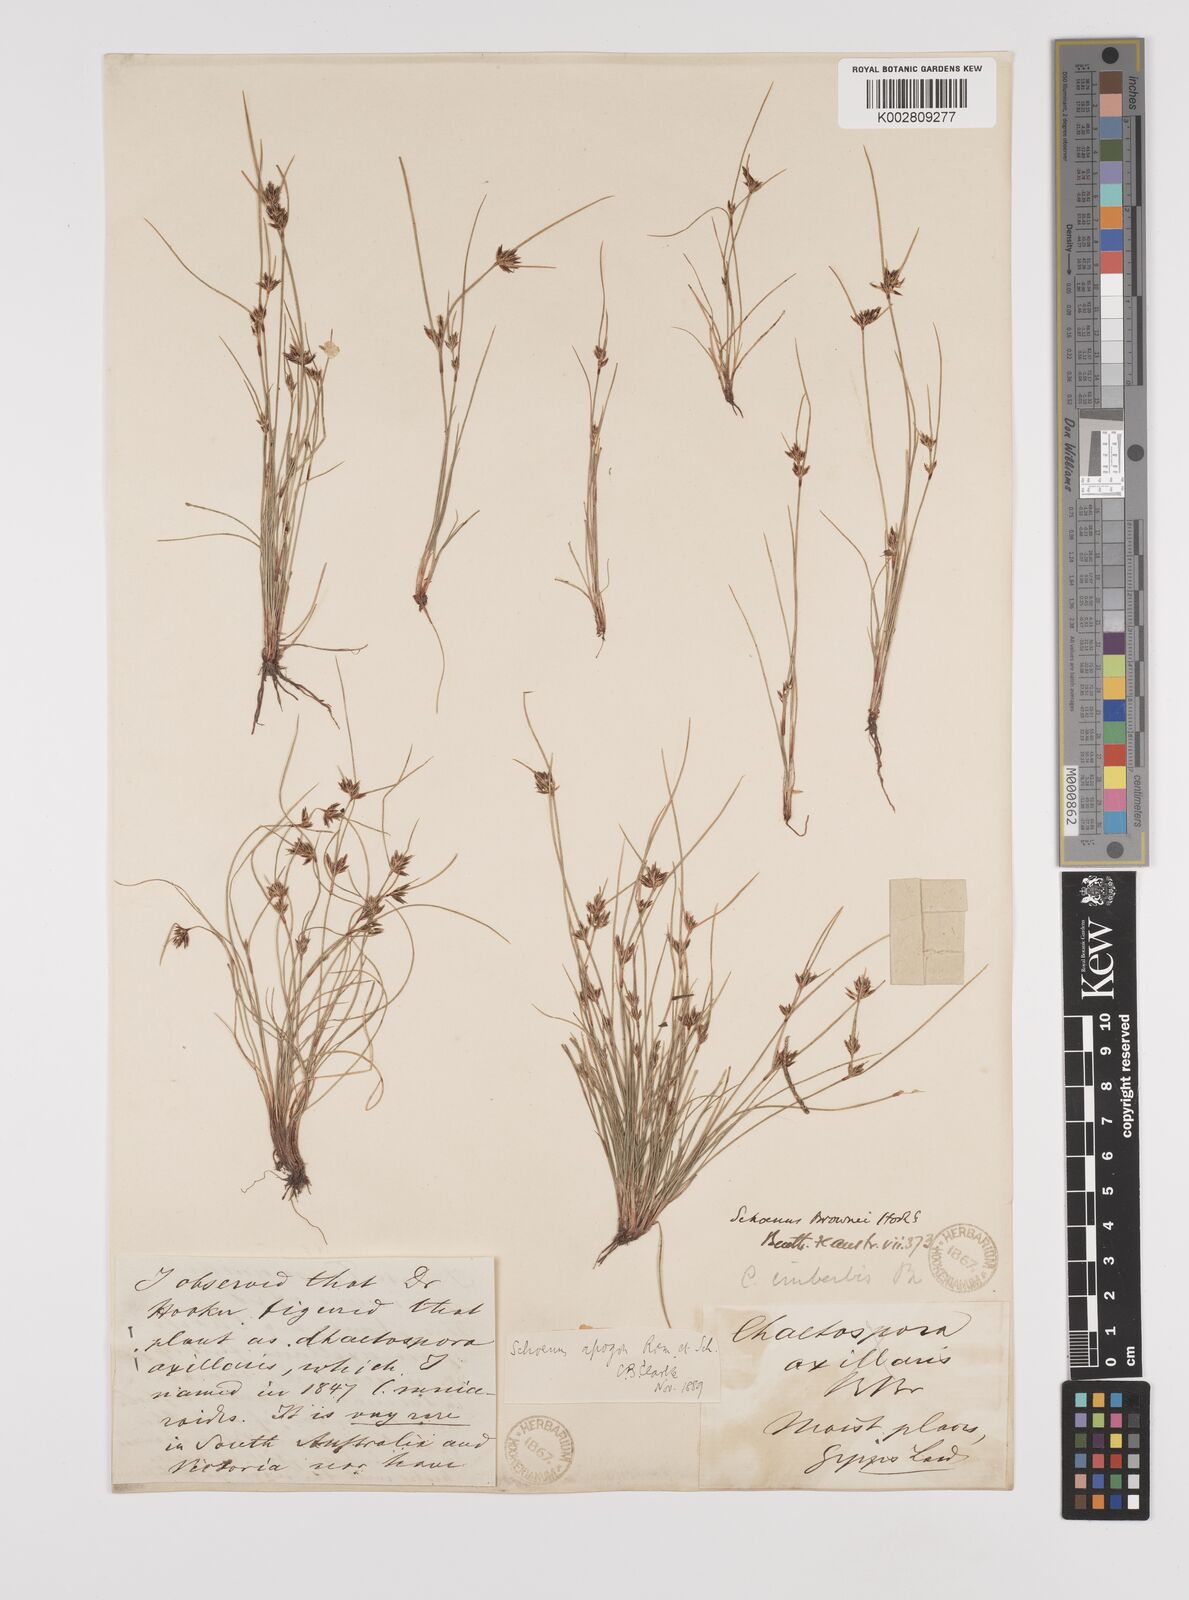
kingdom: Plantae
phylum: Tracheophyta
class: Liliopsida
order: Poales
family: Cyperaceae
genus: Schoenus
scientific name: Schoenus apogon
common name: Smooth bogrush
